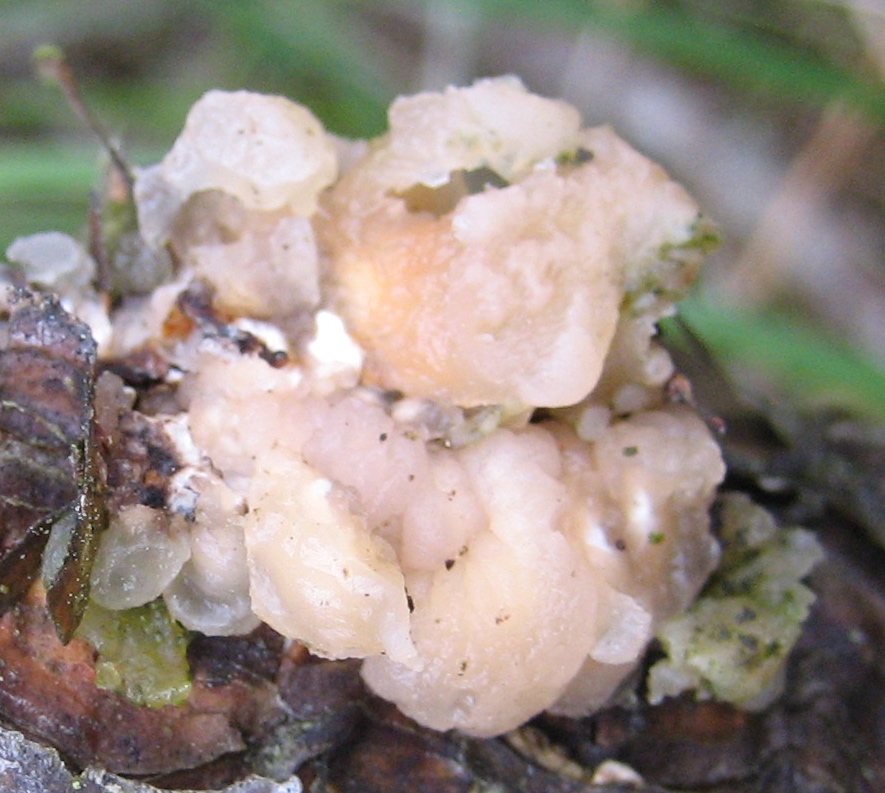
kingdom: Fungi
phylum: Basidiomycota
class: Tremellomycetes
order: Tremellales
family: Naemateliaceae
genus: Naematelia
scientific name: Naematelia encephala
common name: fyrre-bævresvamp
